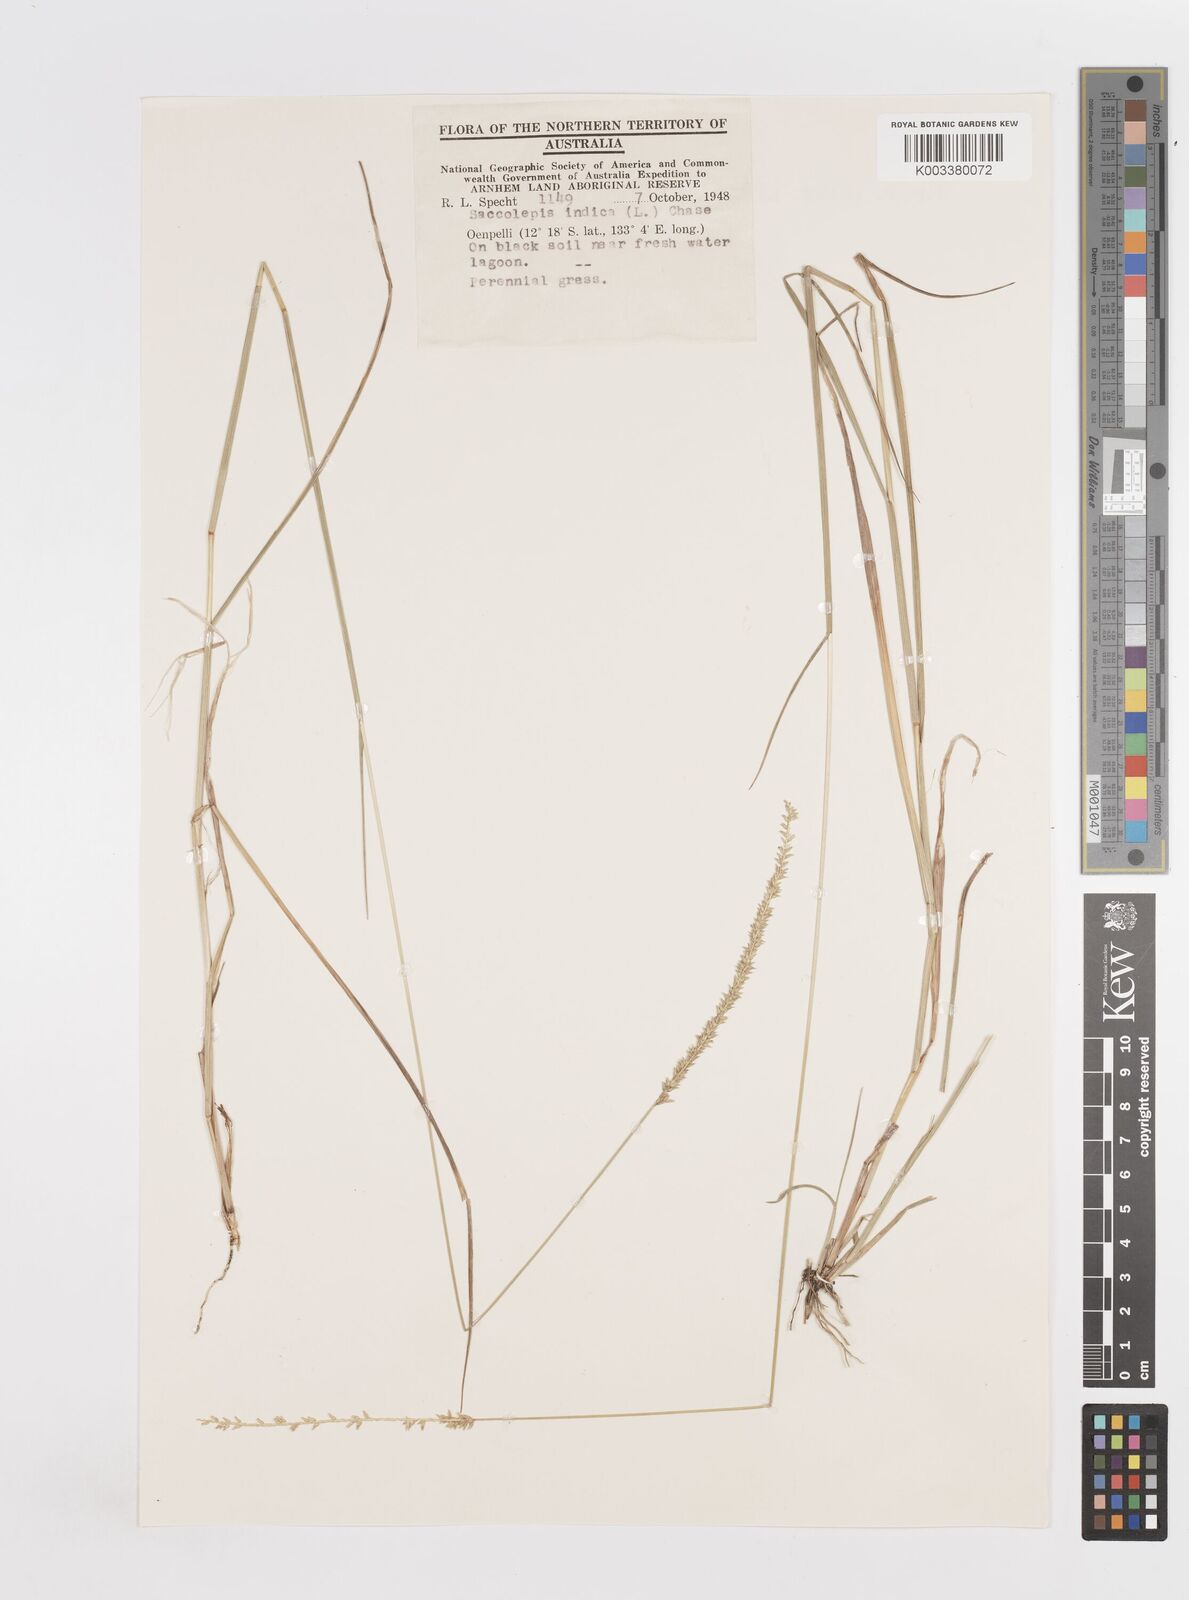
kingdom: Plantae
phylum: Tracheophyta
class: Liliopsida
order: Poales
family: Poaceae
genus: Sacciolepis
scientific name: Sacciolepis indica
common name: Glenwoodgrass
